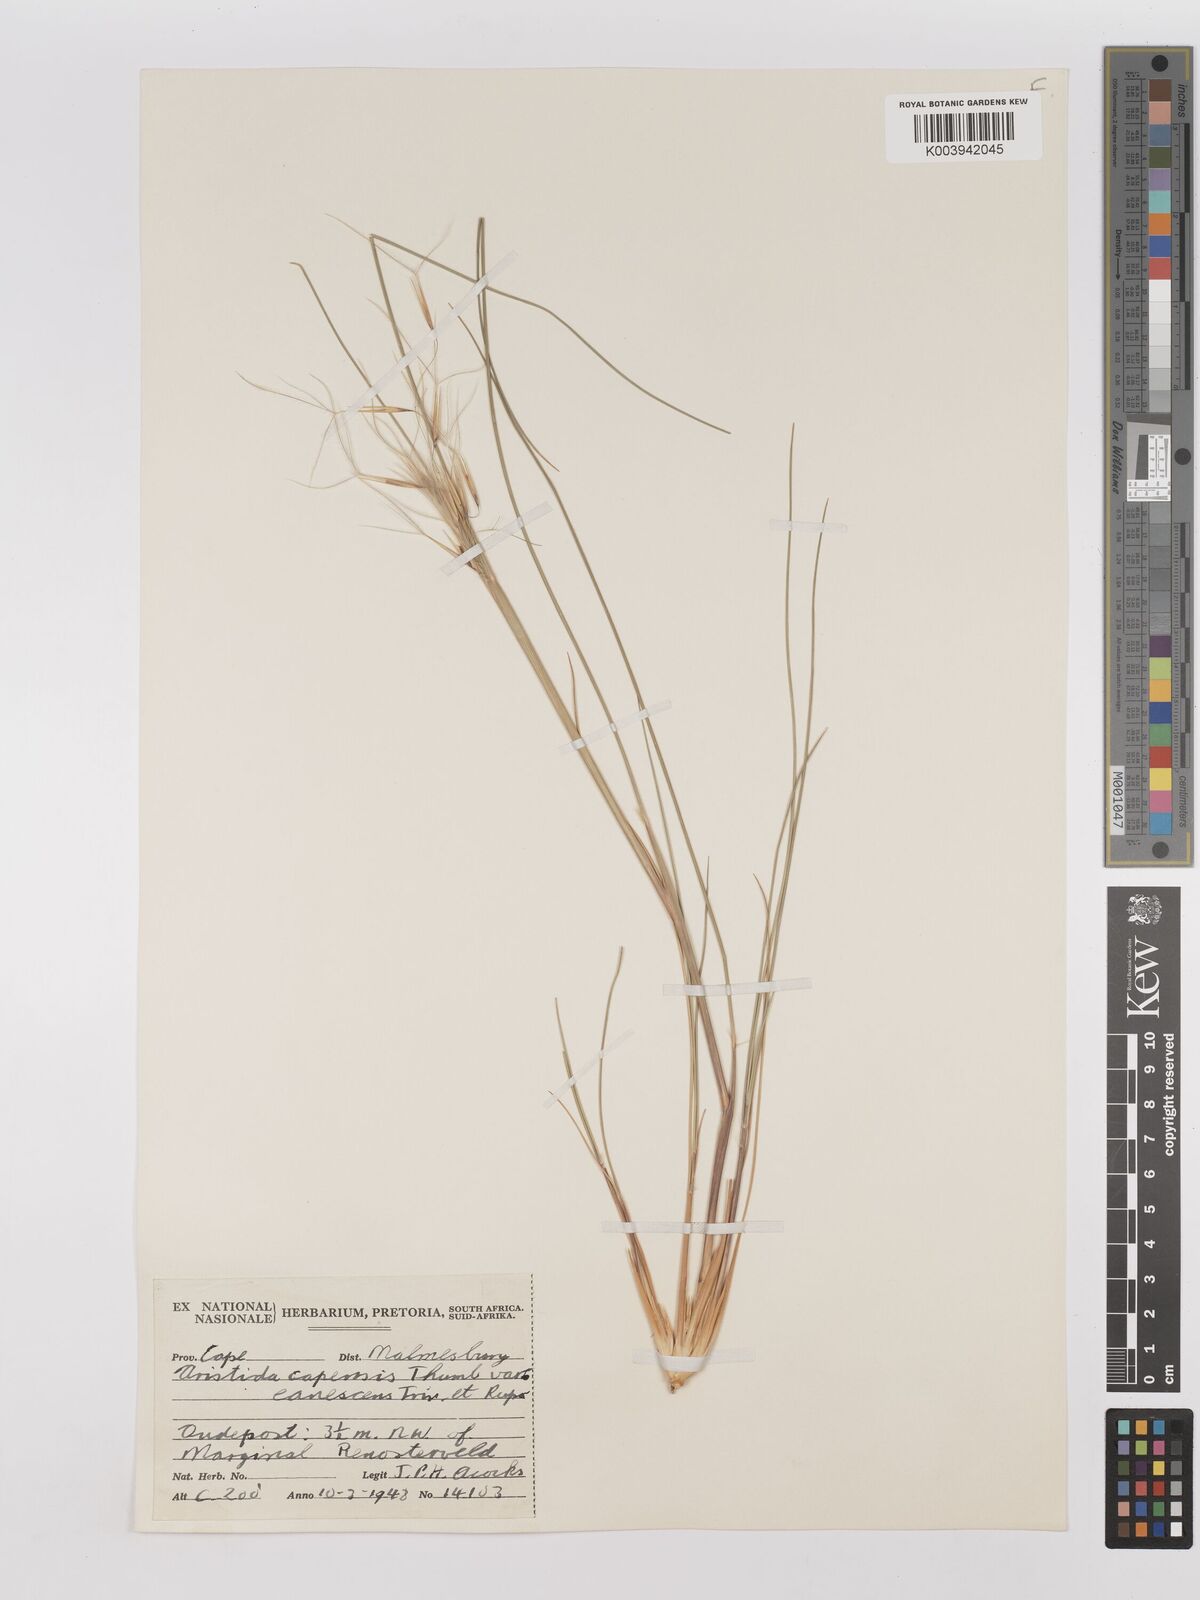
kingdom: Plantae
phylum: Tracheophyta
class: Liliopsida
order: Poales
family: Poaceae
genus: Stipagrostis
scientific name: Stipagrostis zeyheri
